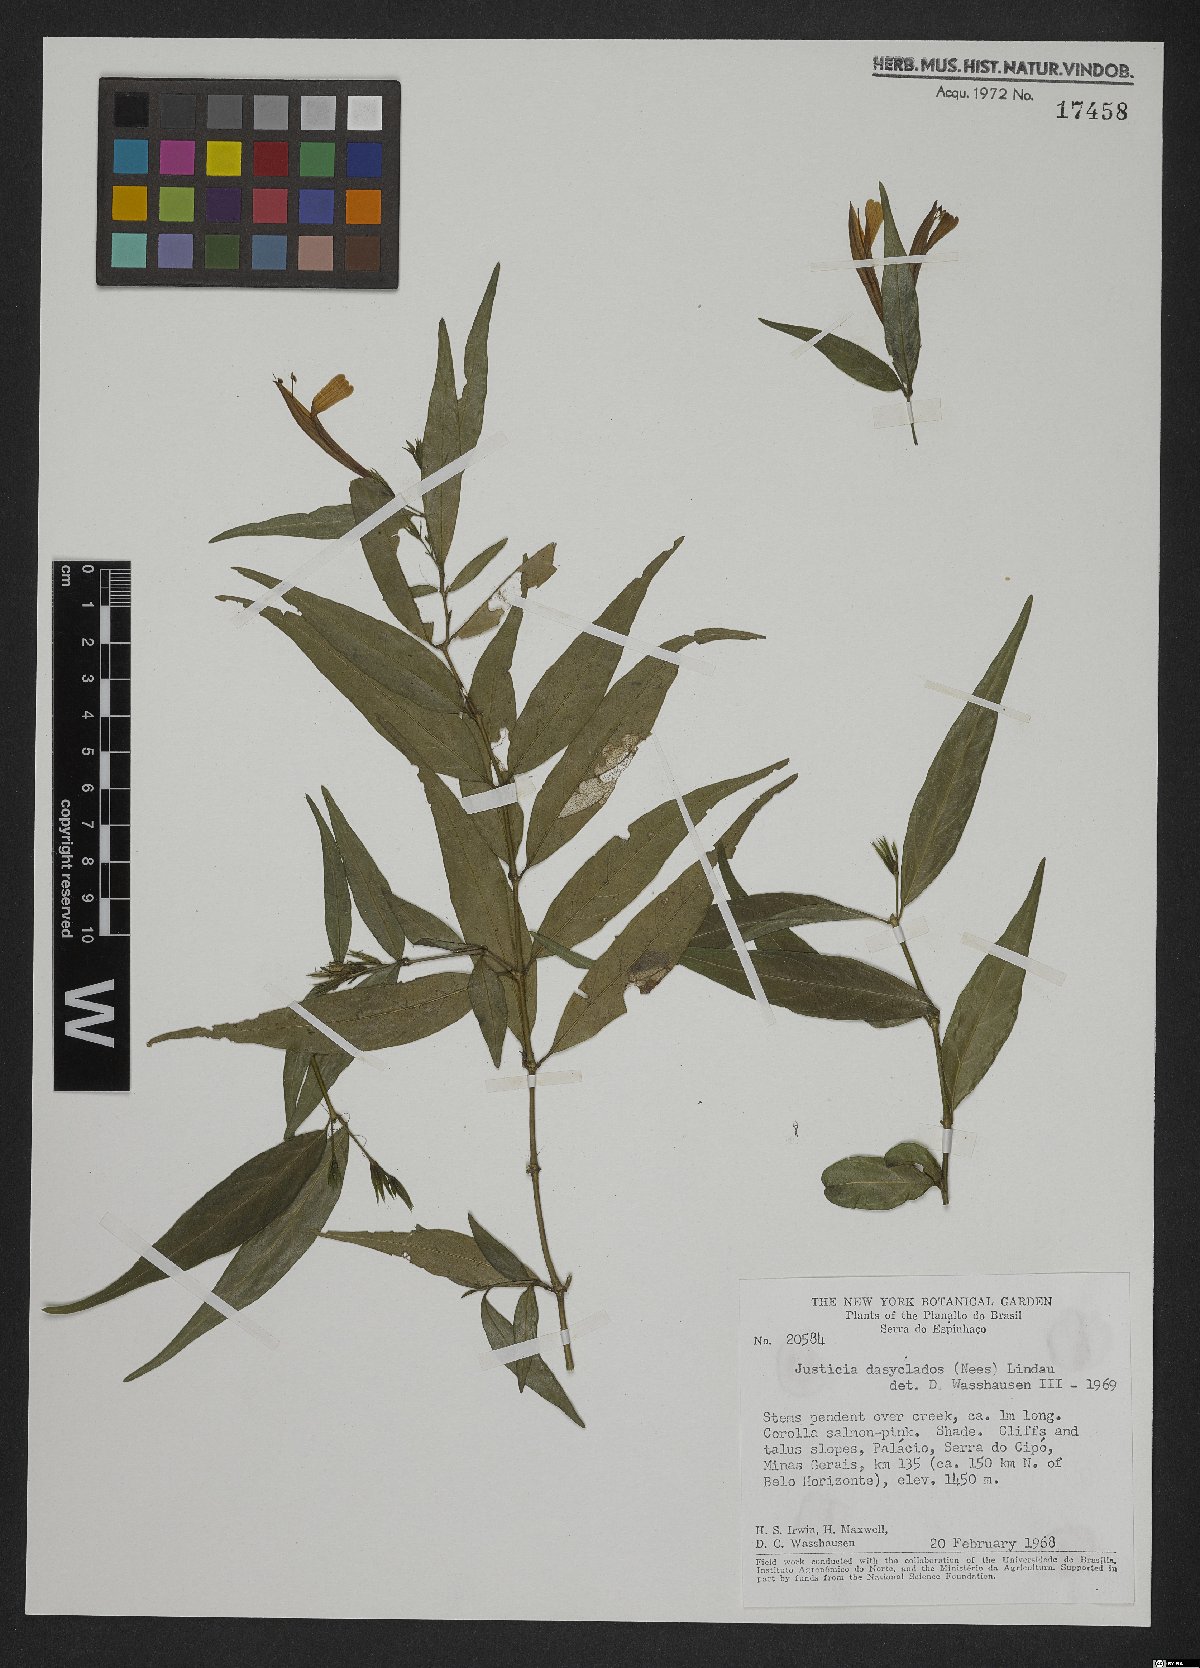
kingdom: Plantae
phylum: Tracheophyta
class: Magnoliopsida
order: Lamiales
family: Acanthaceae
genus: Dianthera
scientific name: Dianthera dasyclados
